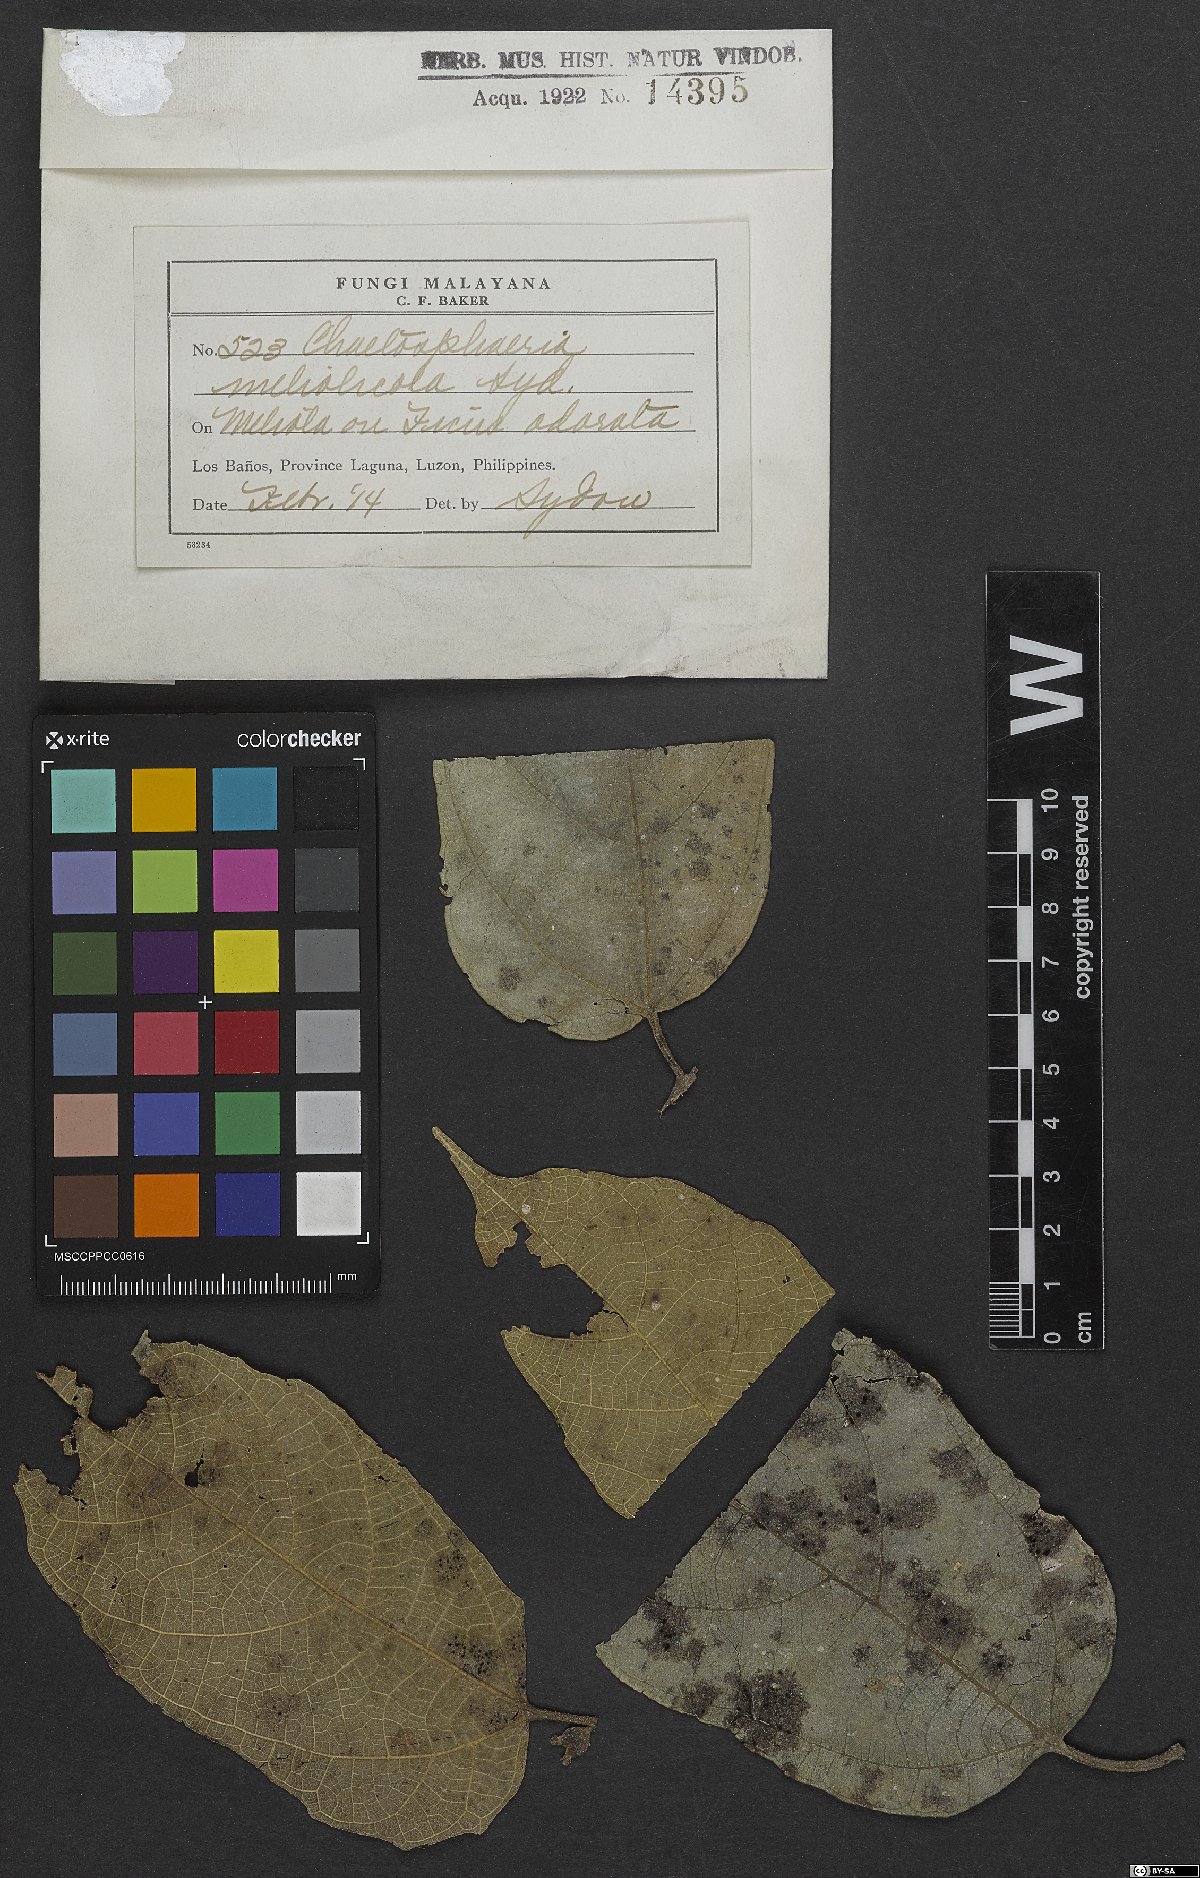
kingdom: Fungi
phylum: Ascomycota
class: Sordariomycetes
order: Chaetosphaeriales
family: Chaetosphaeriaceae
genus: Chaetosphaeria
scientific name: Chaetosphaeria meliolicola
